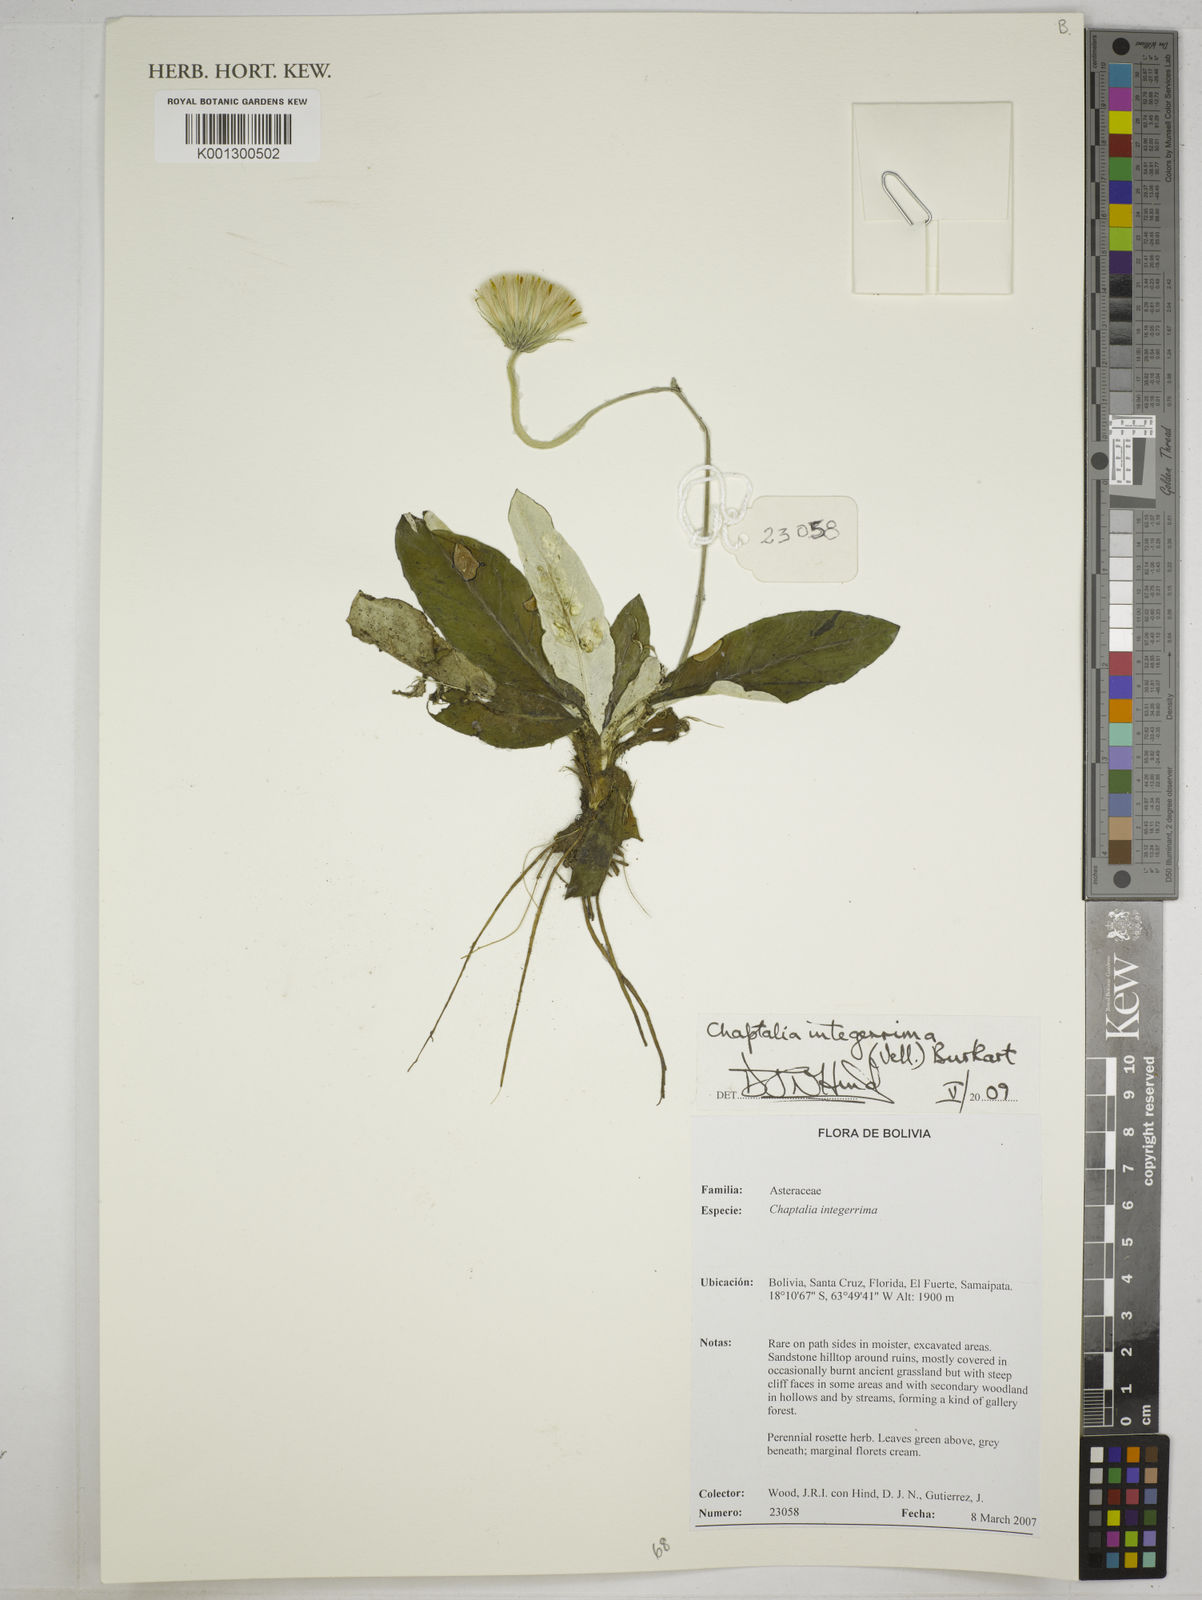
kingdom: Plantae
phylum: Tracheophyta
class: Magnoliopsida
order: Asterales
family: Asteraceae
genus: Chaptalia
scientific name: Chaptalia integerrima
